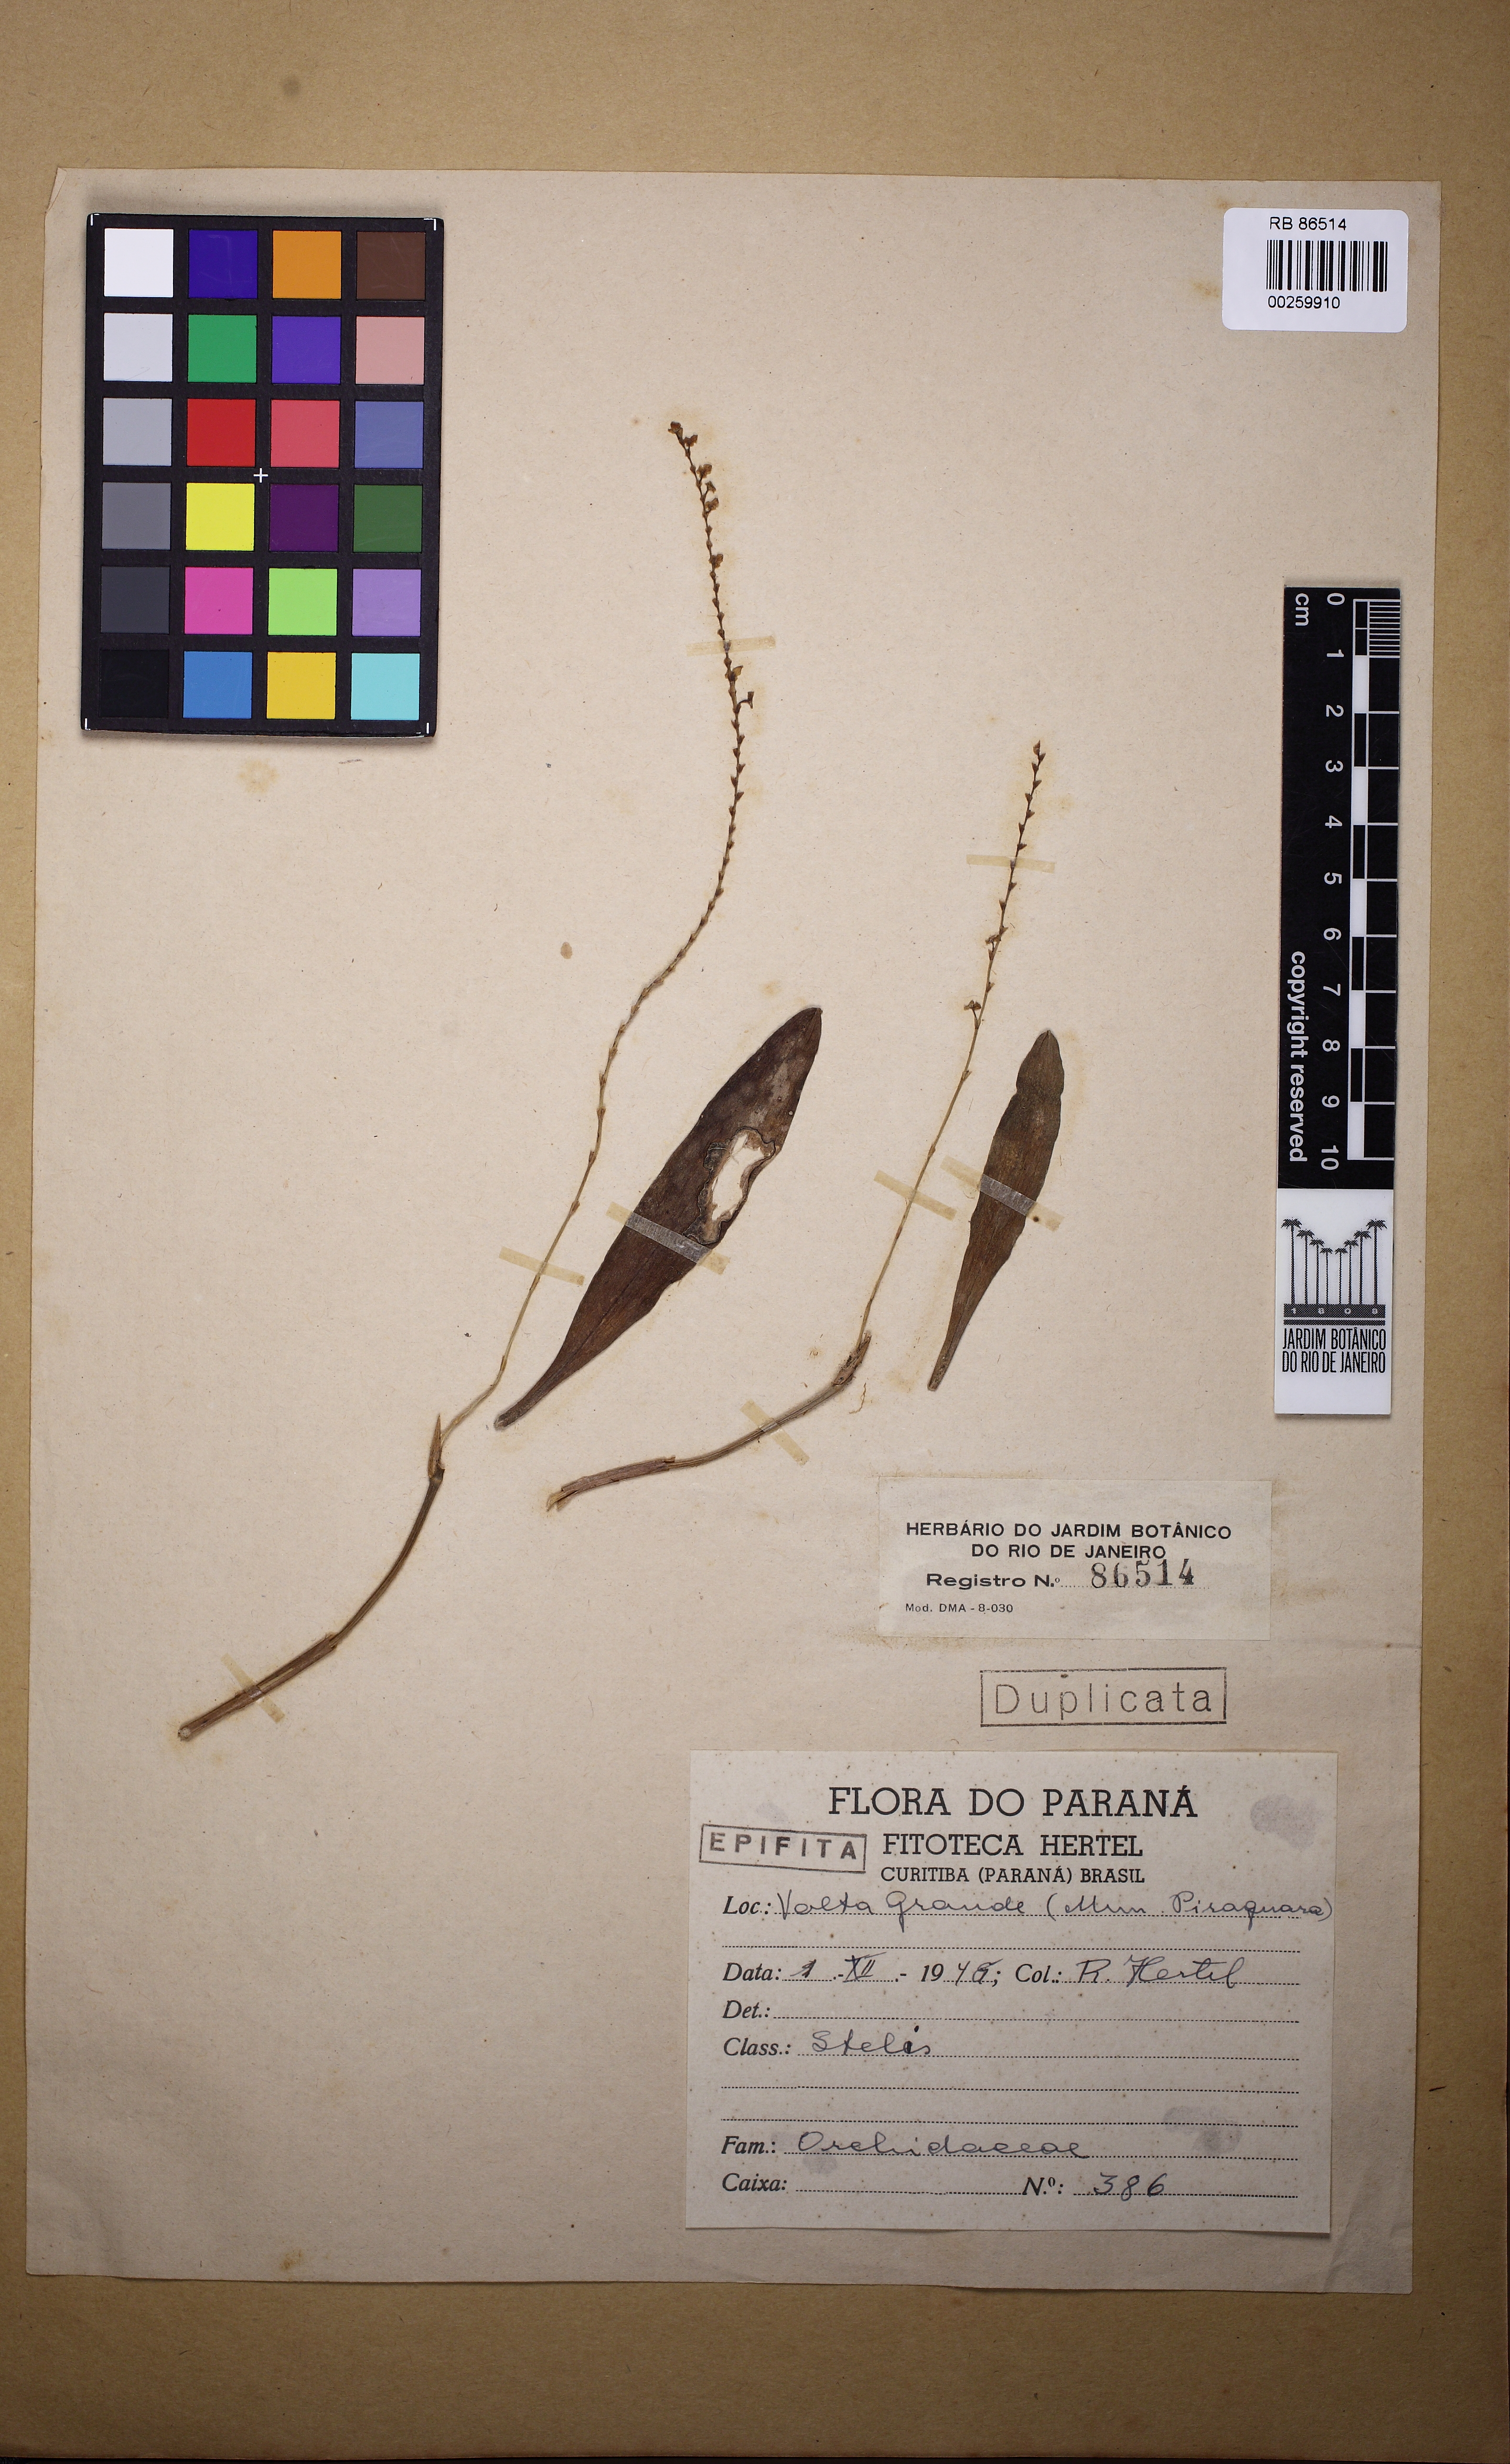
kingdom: Plantae
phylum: Tracheophyta
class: Liliopsida
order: Asparagales
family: Orchidaceae
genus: Stelis
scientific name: Stelis
